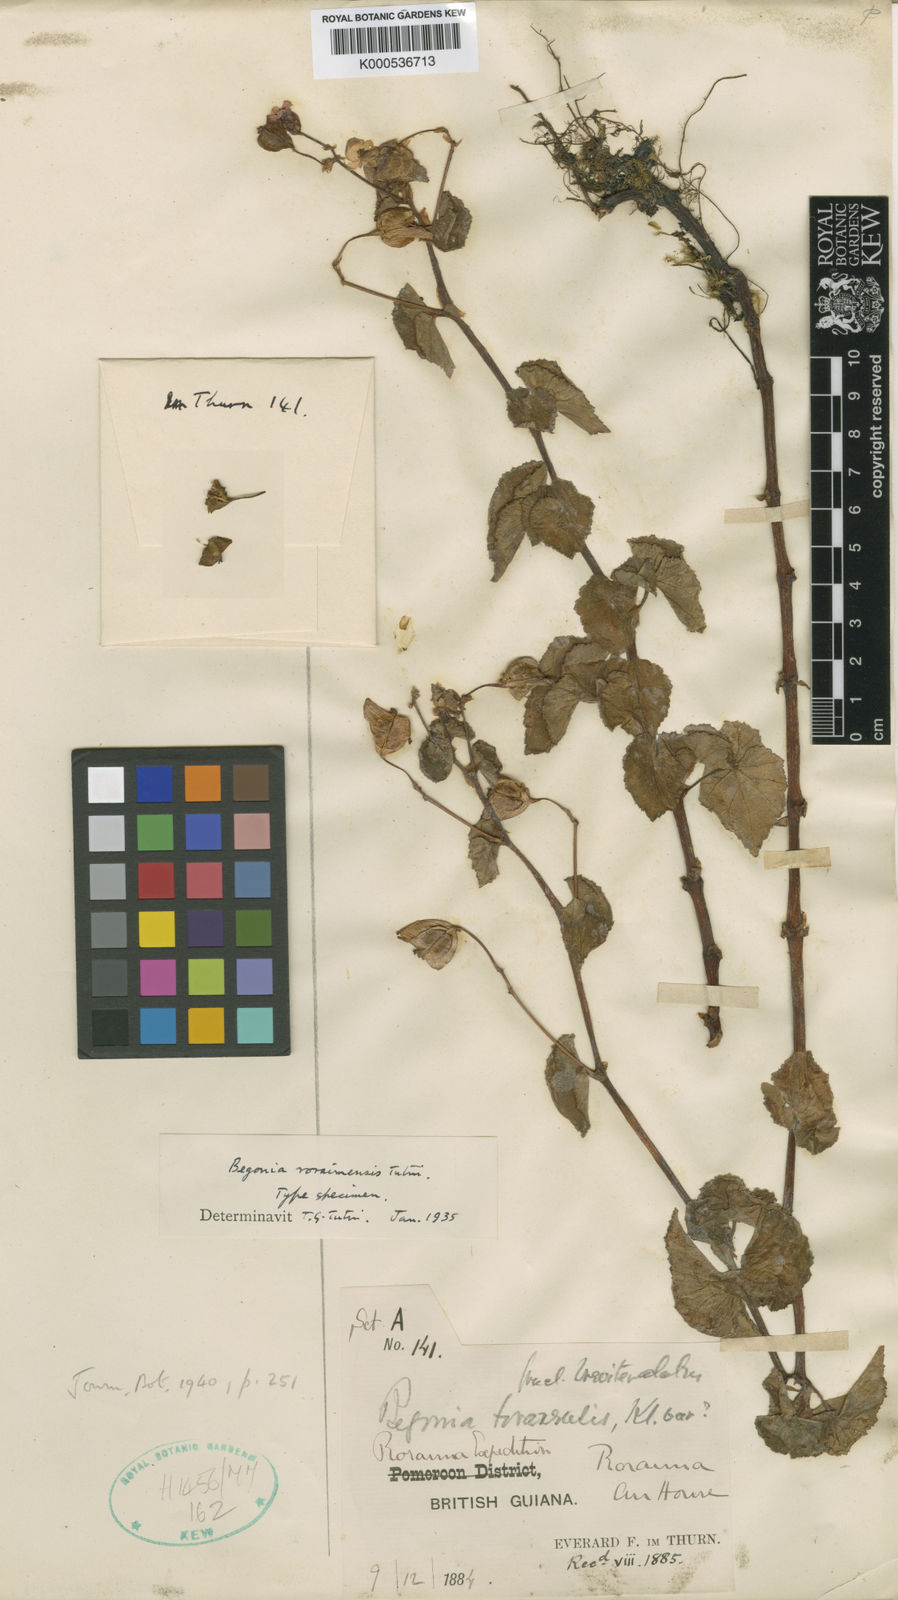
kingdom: Plantae
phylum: Tracheophyta
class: Magnoliopsida
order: Cucurbitales
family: Begoniaceae
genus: Begonia
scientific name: Begonia fischeri
